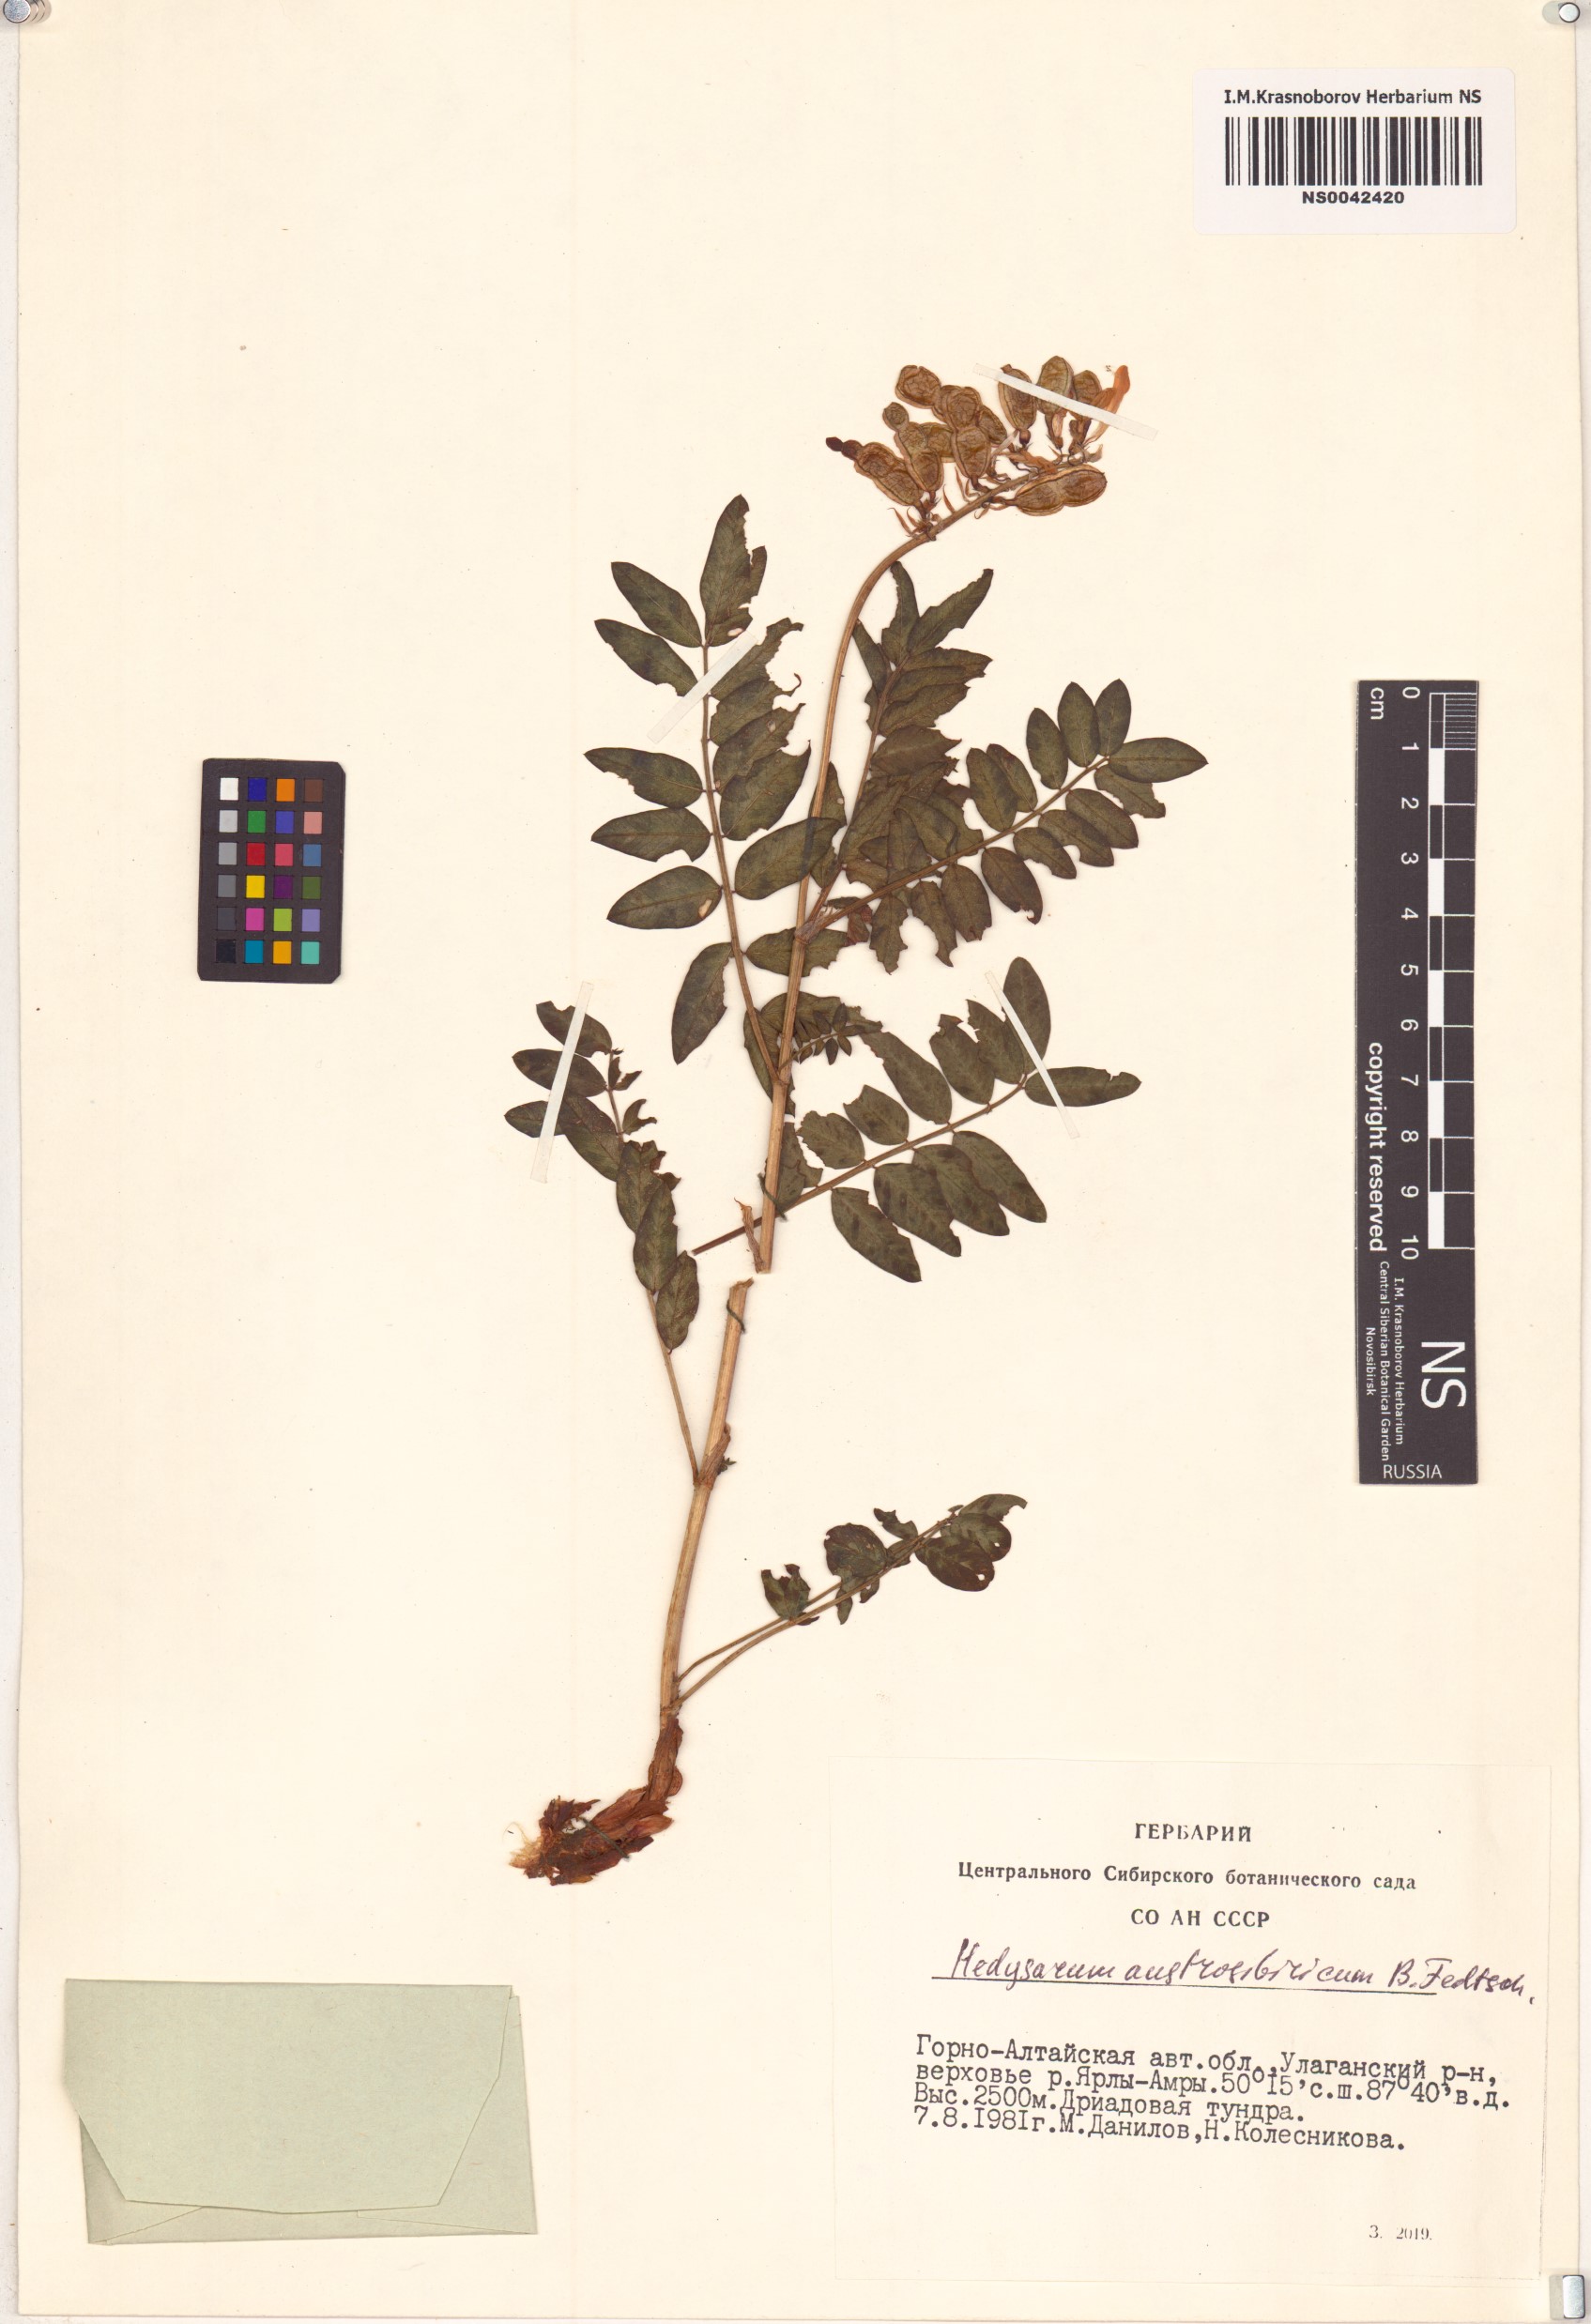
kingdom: Plantae
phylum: Tracheophyta
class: Magnoliopsida
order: Fabales
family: Fabaceae
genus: Hedysarum
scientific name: Hedysarum neglectum
